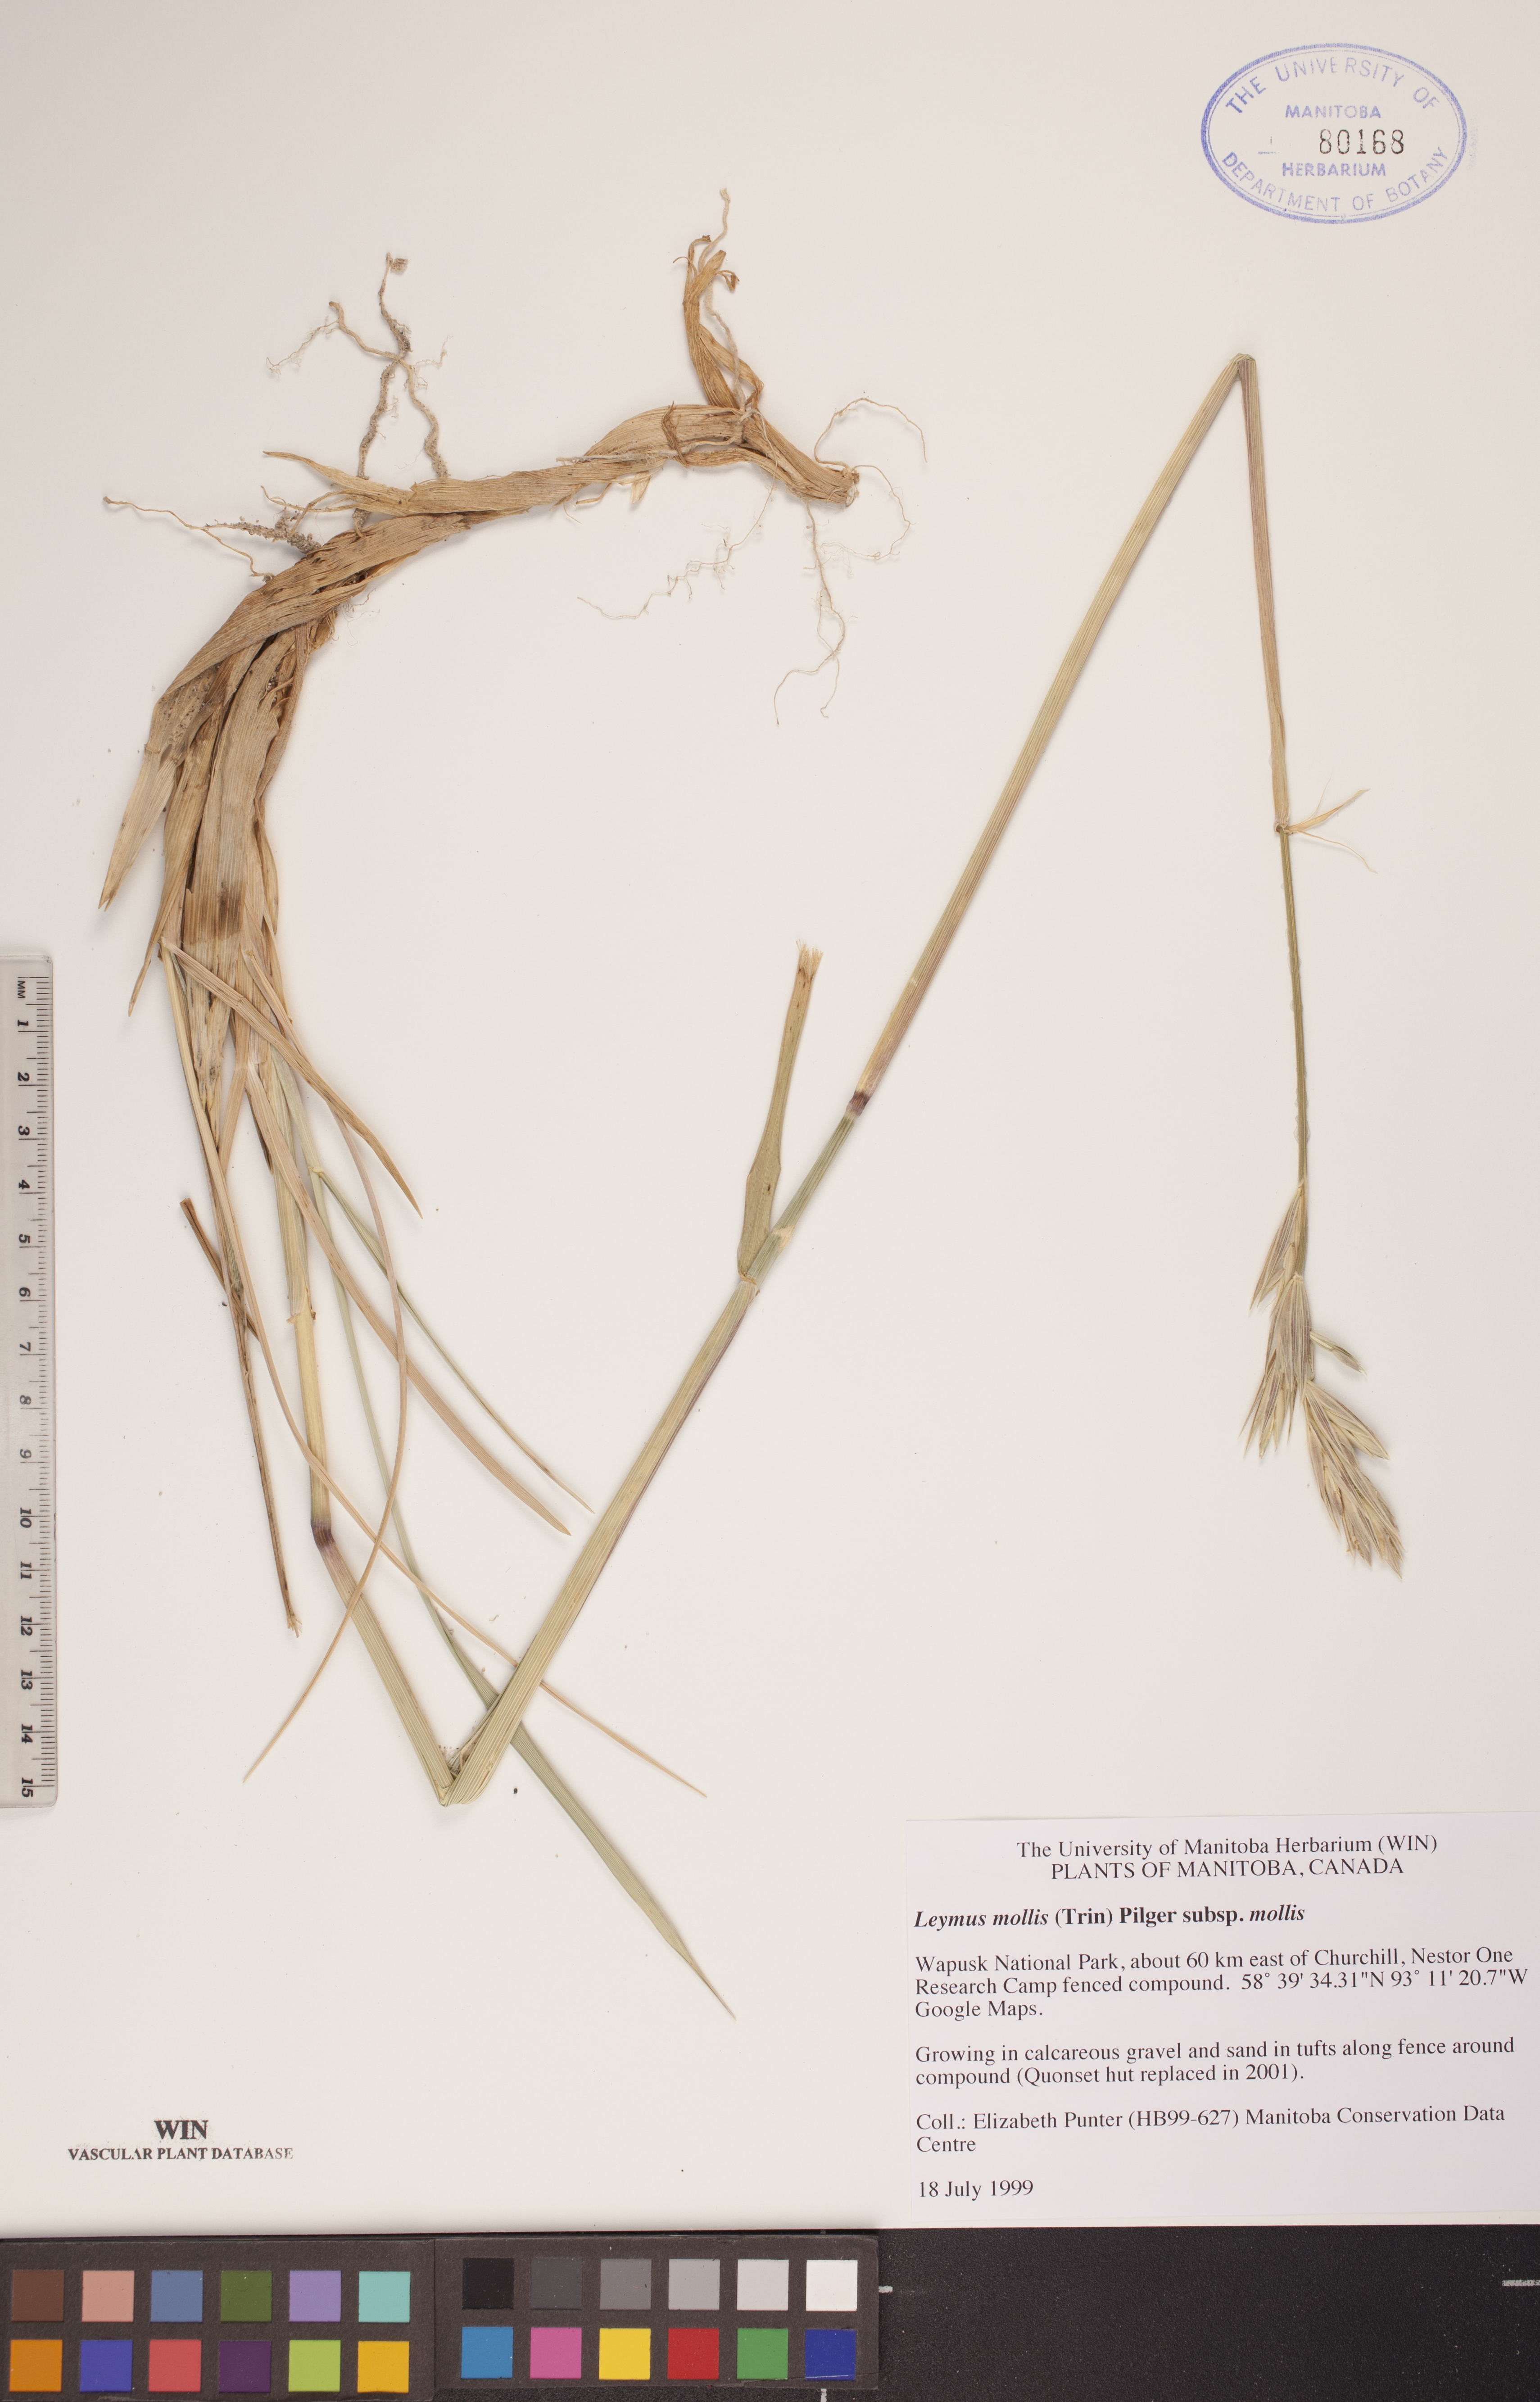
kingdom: Plantae
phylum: Tracheophyta
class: Liliopsida
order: Poales
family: Poaceae
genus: Leymus
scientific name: Leymus mollis
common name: American dune grass
